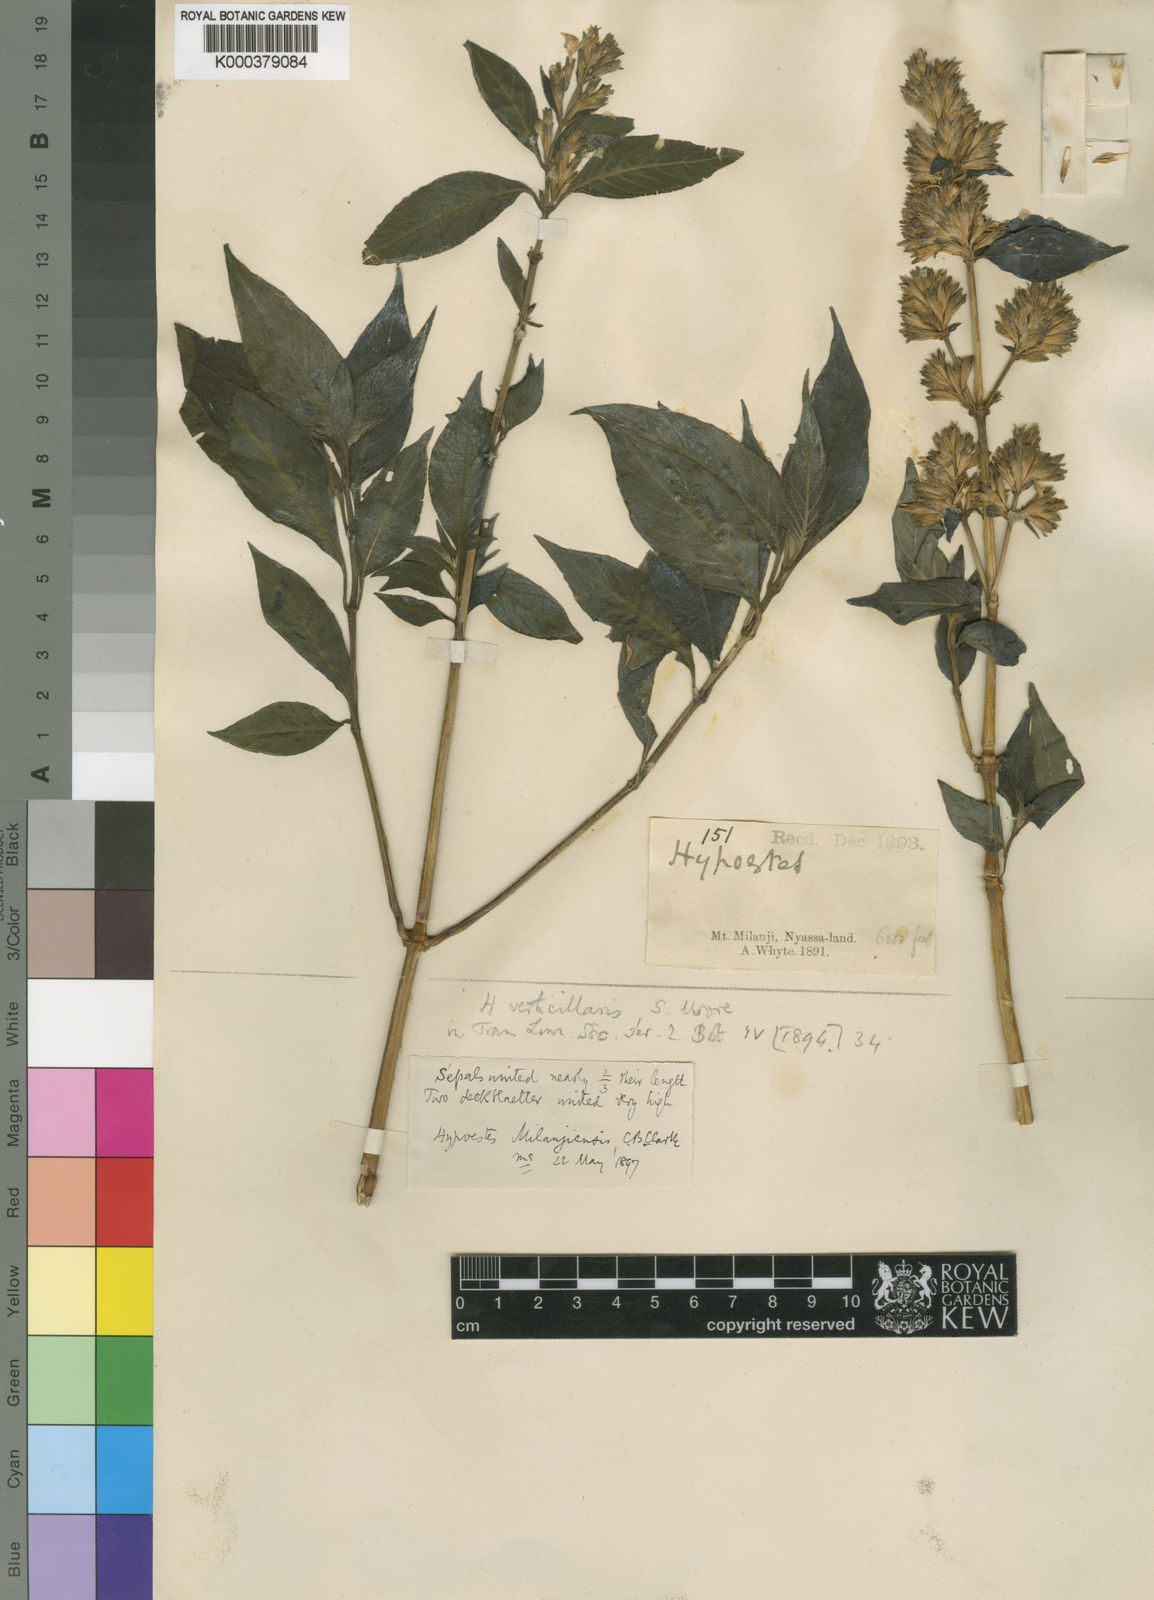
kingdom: Plantae
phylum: Tracheophyta
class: Magnoliopsida
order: Lamiales
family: Acanthaceae
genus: Hypoestes
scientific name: Hypoestes
